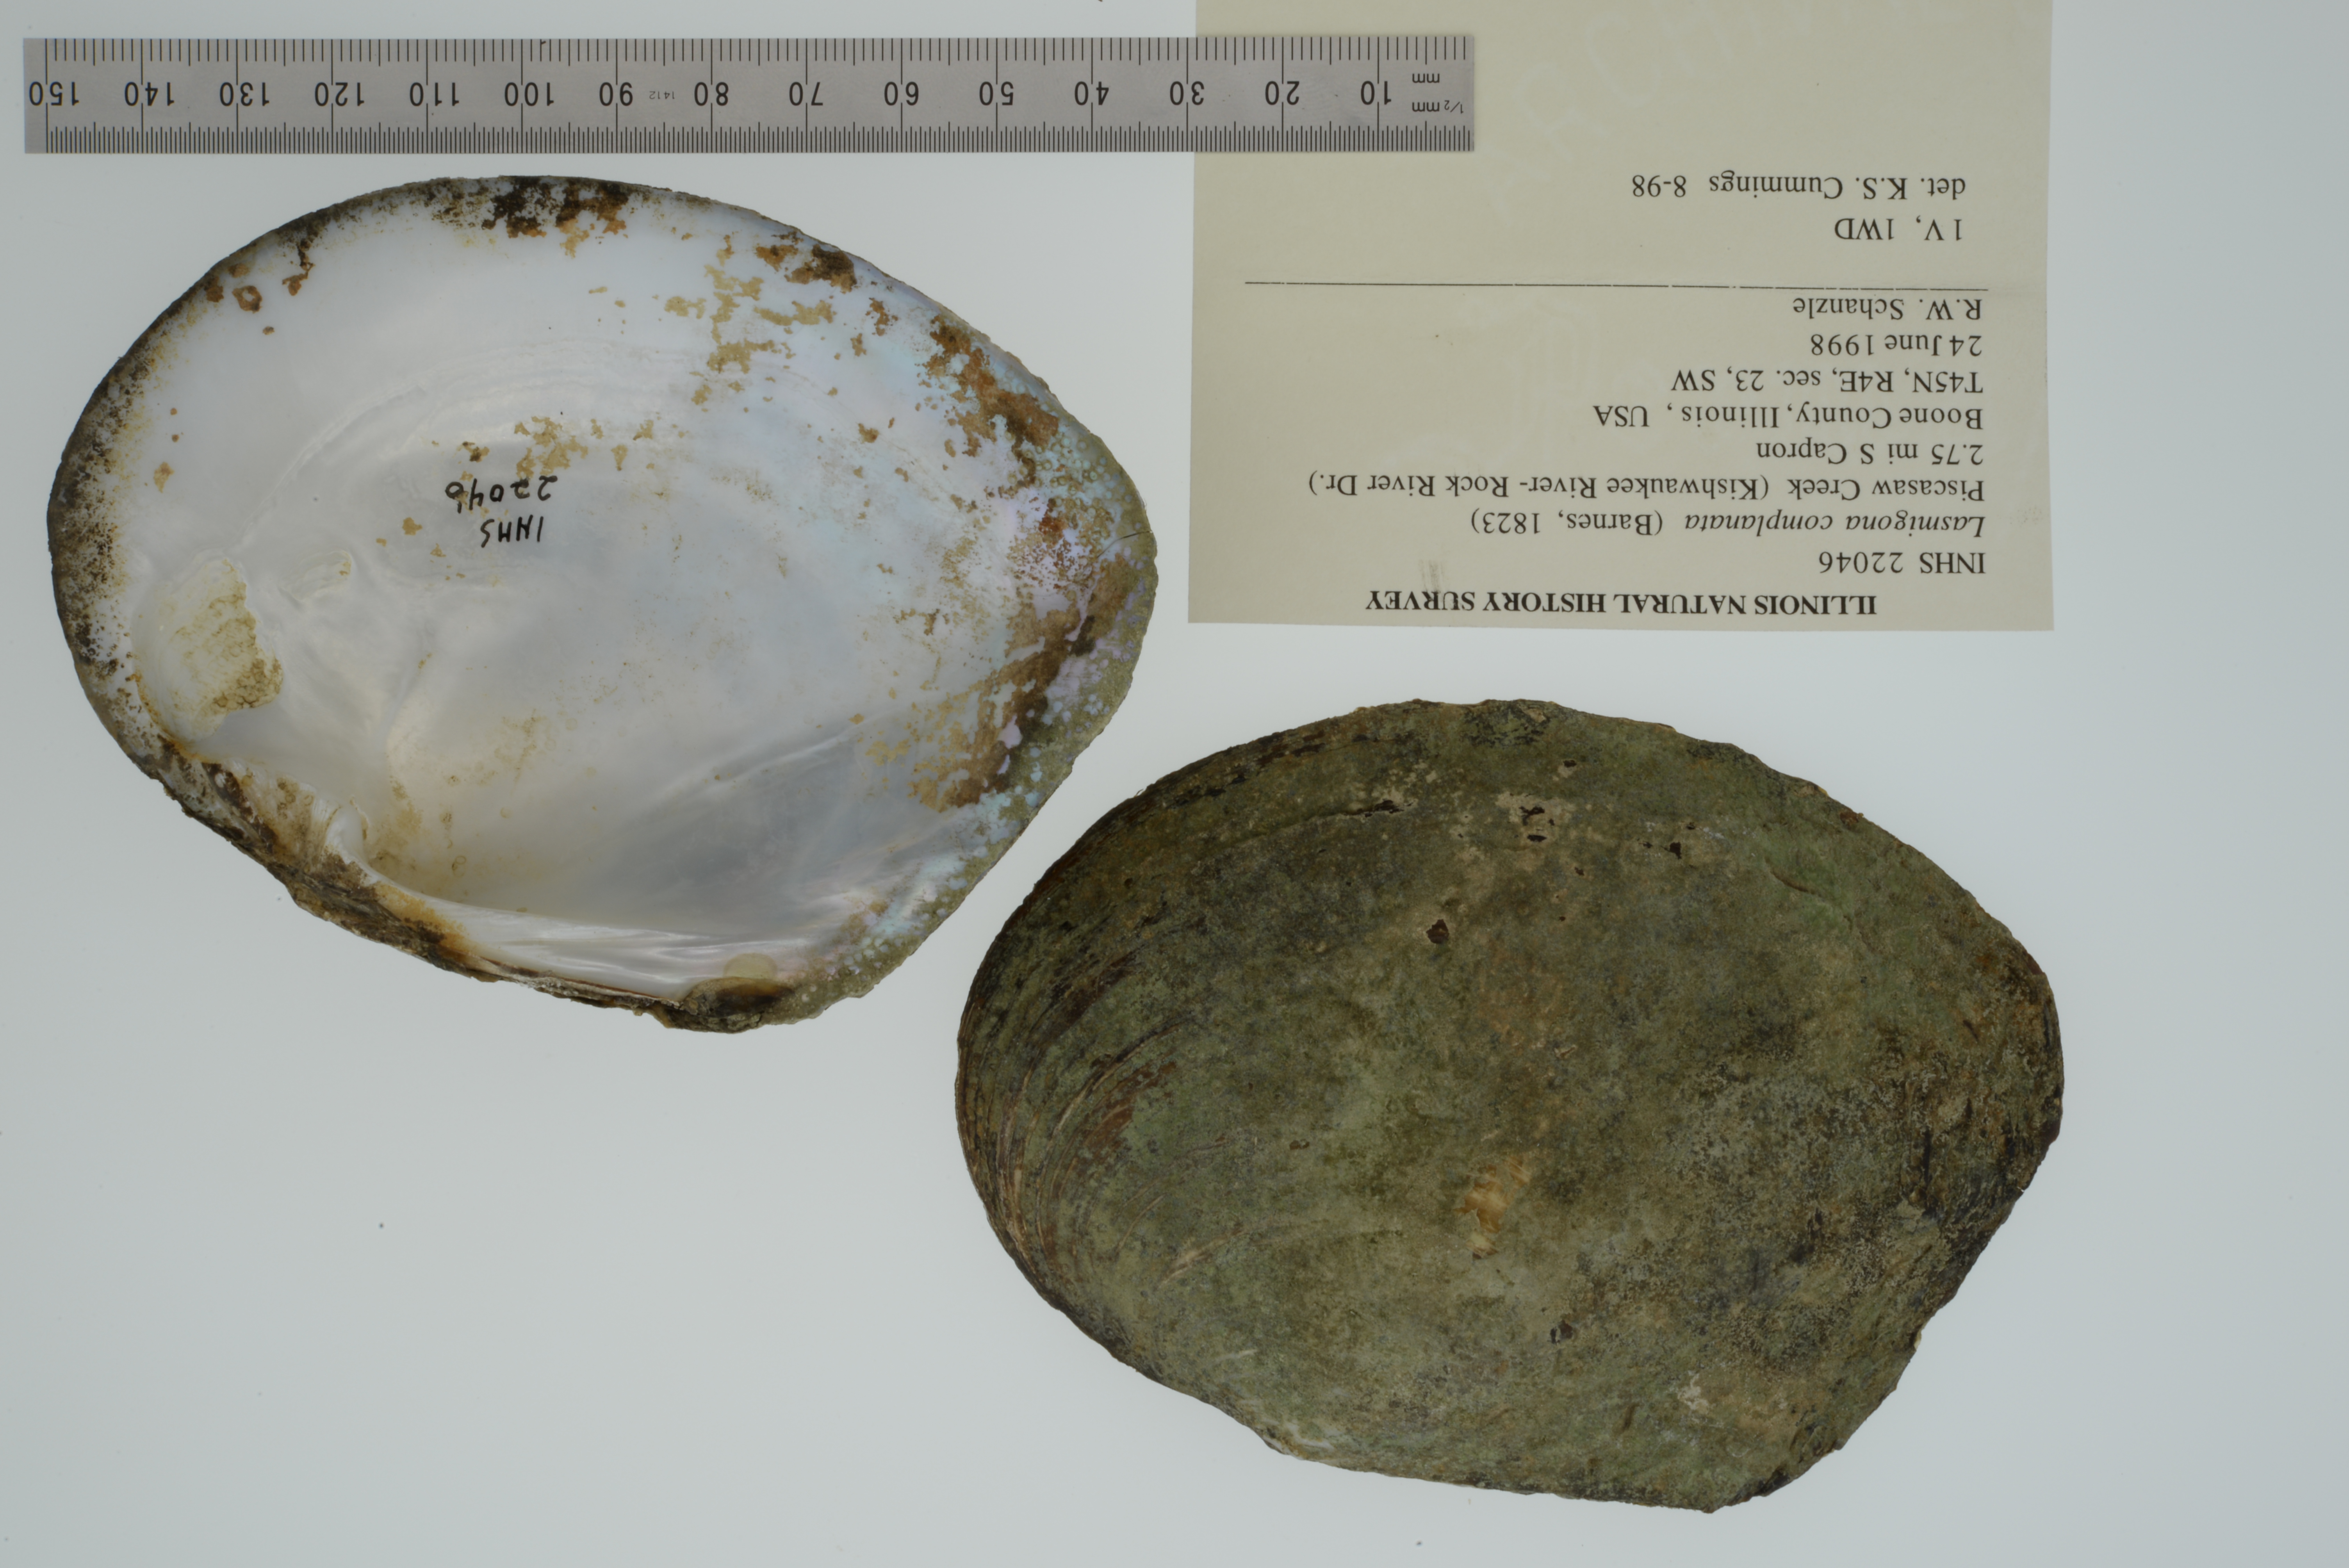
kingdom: Animalia
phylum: Mollusca
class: Bivalvia
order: Unionida
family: Unionidae
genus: Lasmigona
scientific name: Lasmigona complanata
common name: White heelsplitter
